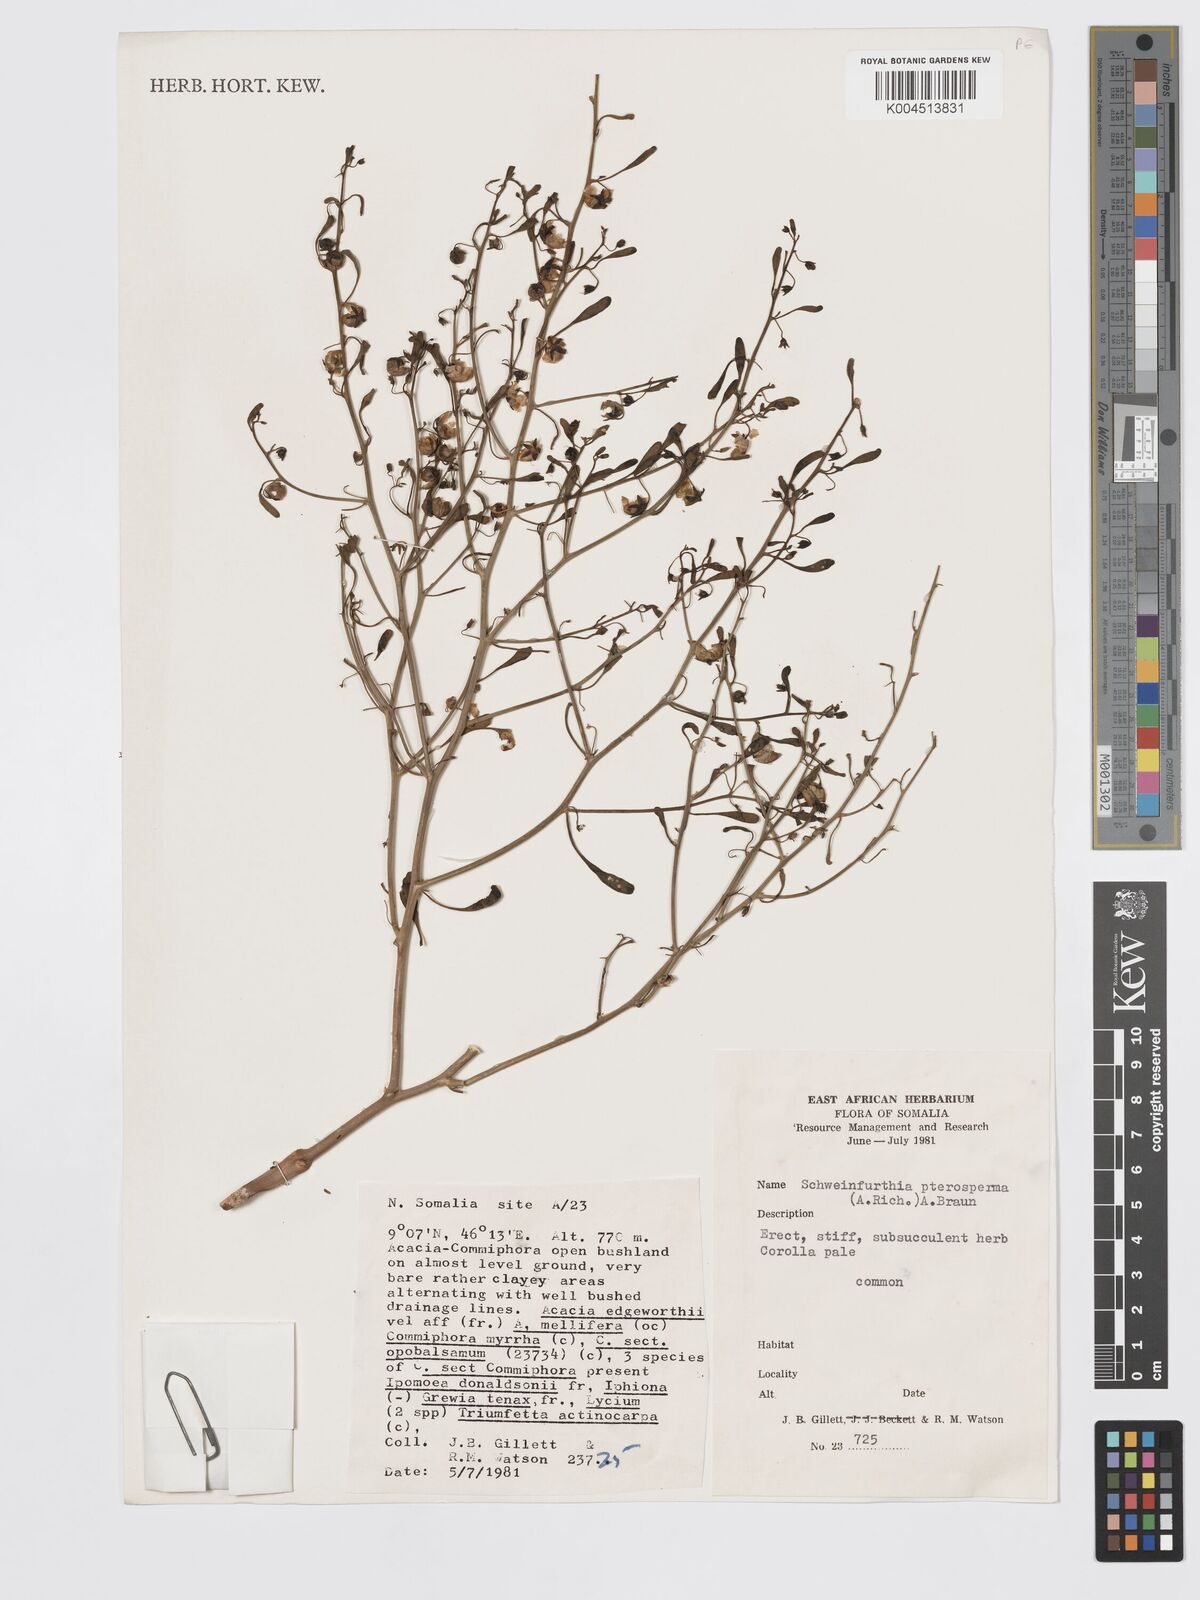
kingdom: Plantae
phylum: Tracheophyta
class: Magnoliopsida
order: Lamiales
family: Plantaginaceae
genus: Schweinfurthia
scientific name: Schweinfurthia pterosperma
